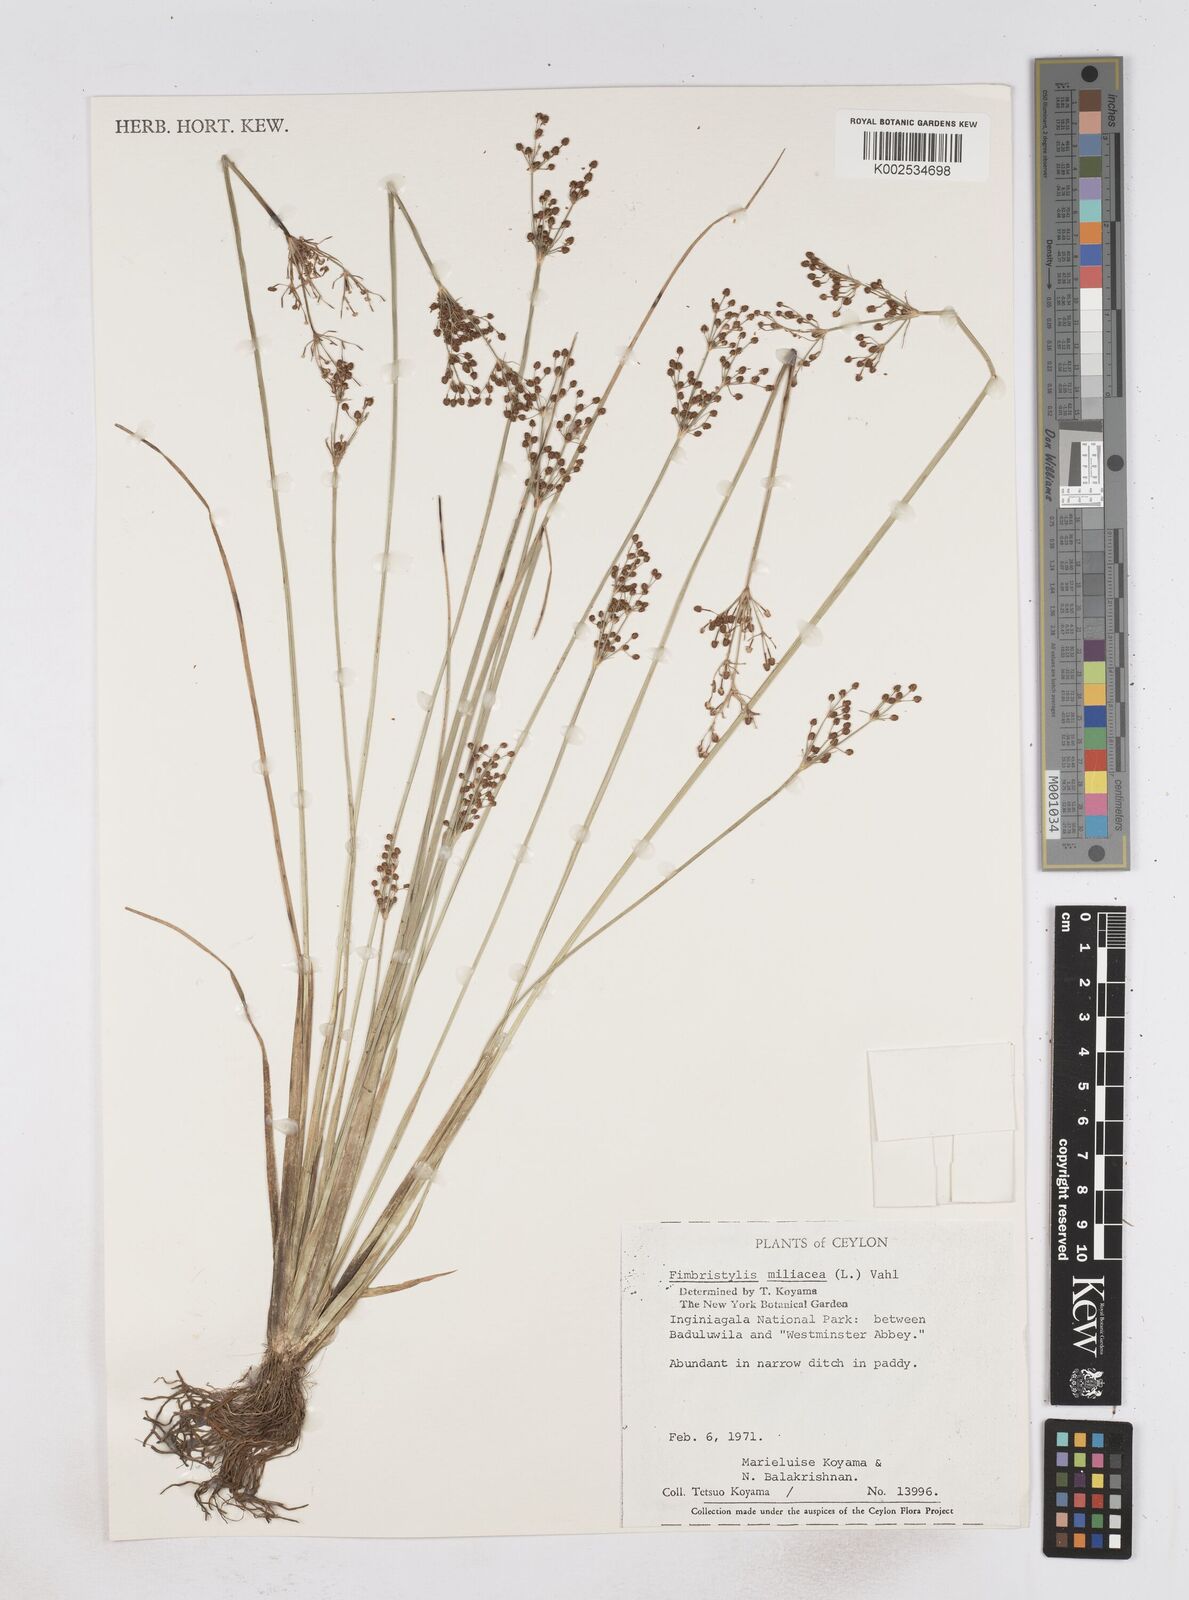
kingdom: Plantae
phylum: Tracheophyta
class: Liliopsida
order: Poales
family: Cyperaceae
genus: Fimbristylis
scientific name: Fimbristylis littoralis
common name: Fimbry
